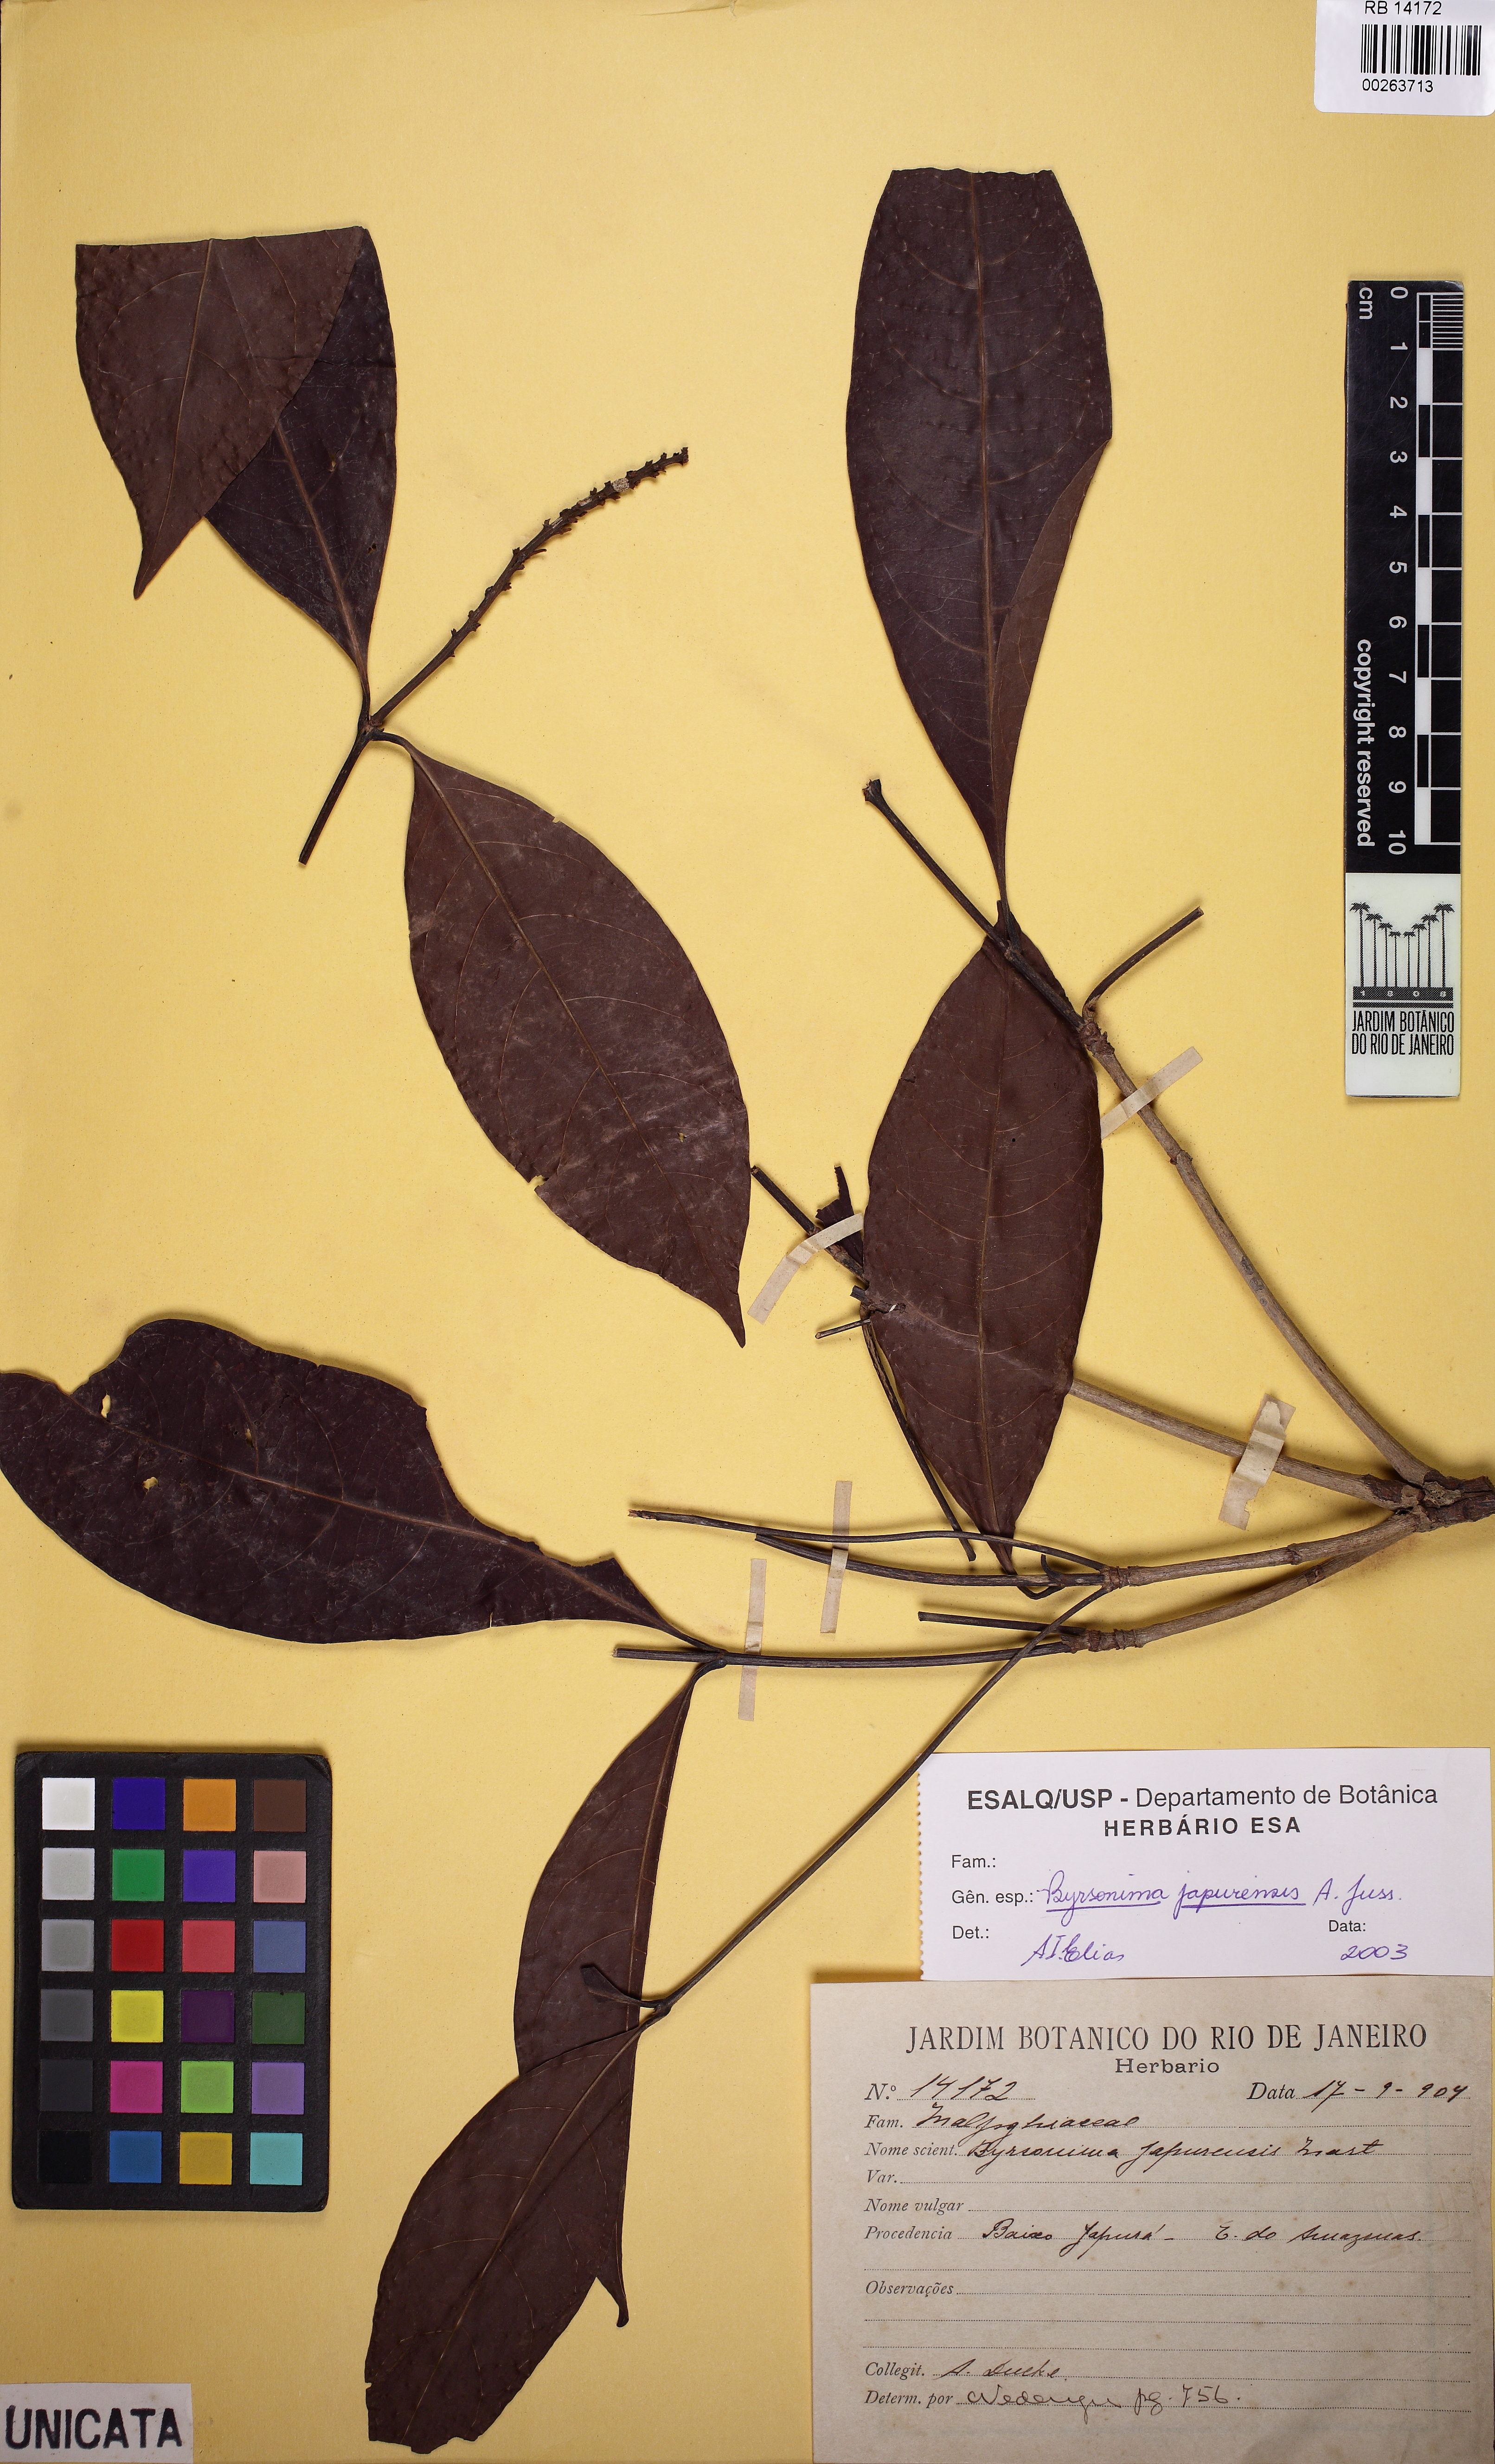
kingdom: Plantae
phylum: Tracheophyta
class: Magnoliopsida
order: Malpighiales
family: Malpighiaceae
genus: Byrsonima
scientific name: Byrsonima japurensis
